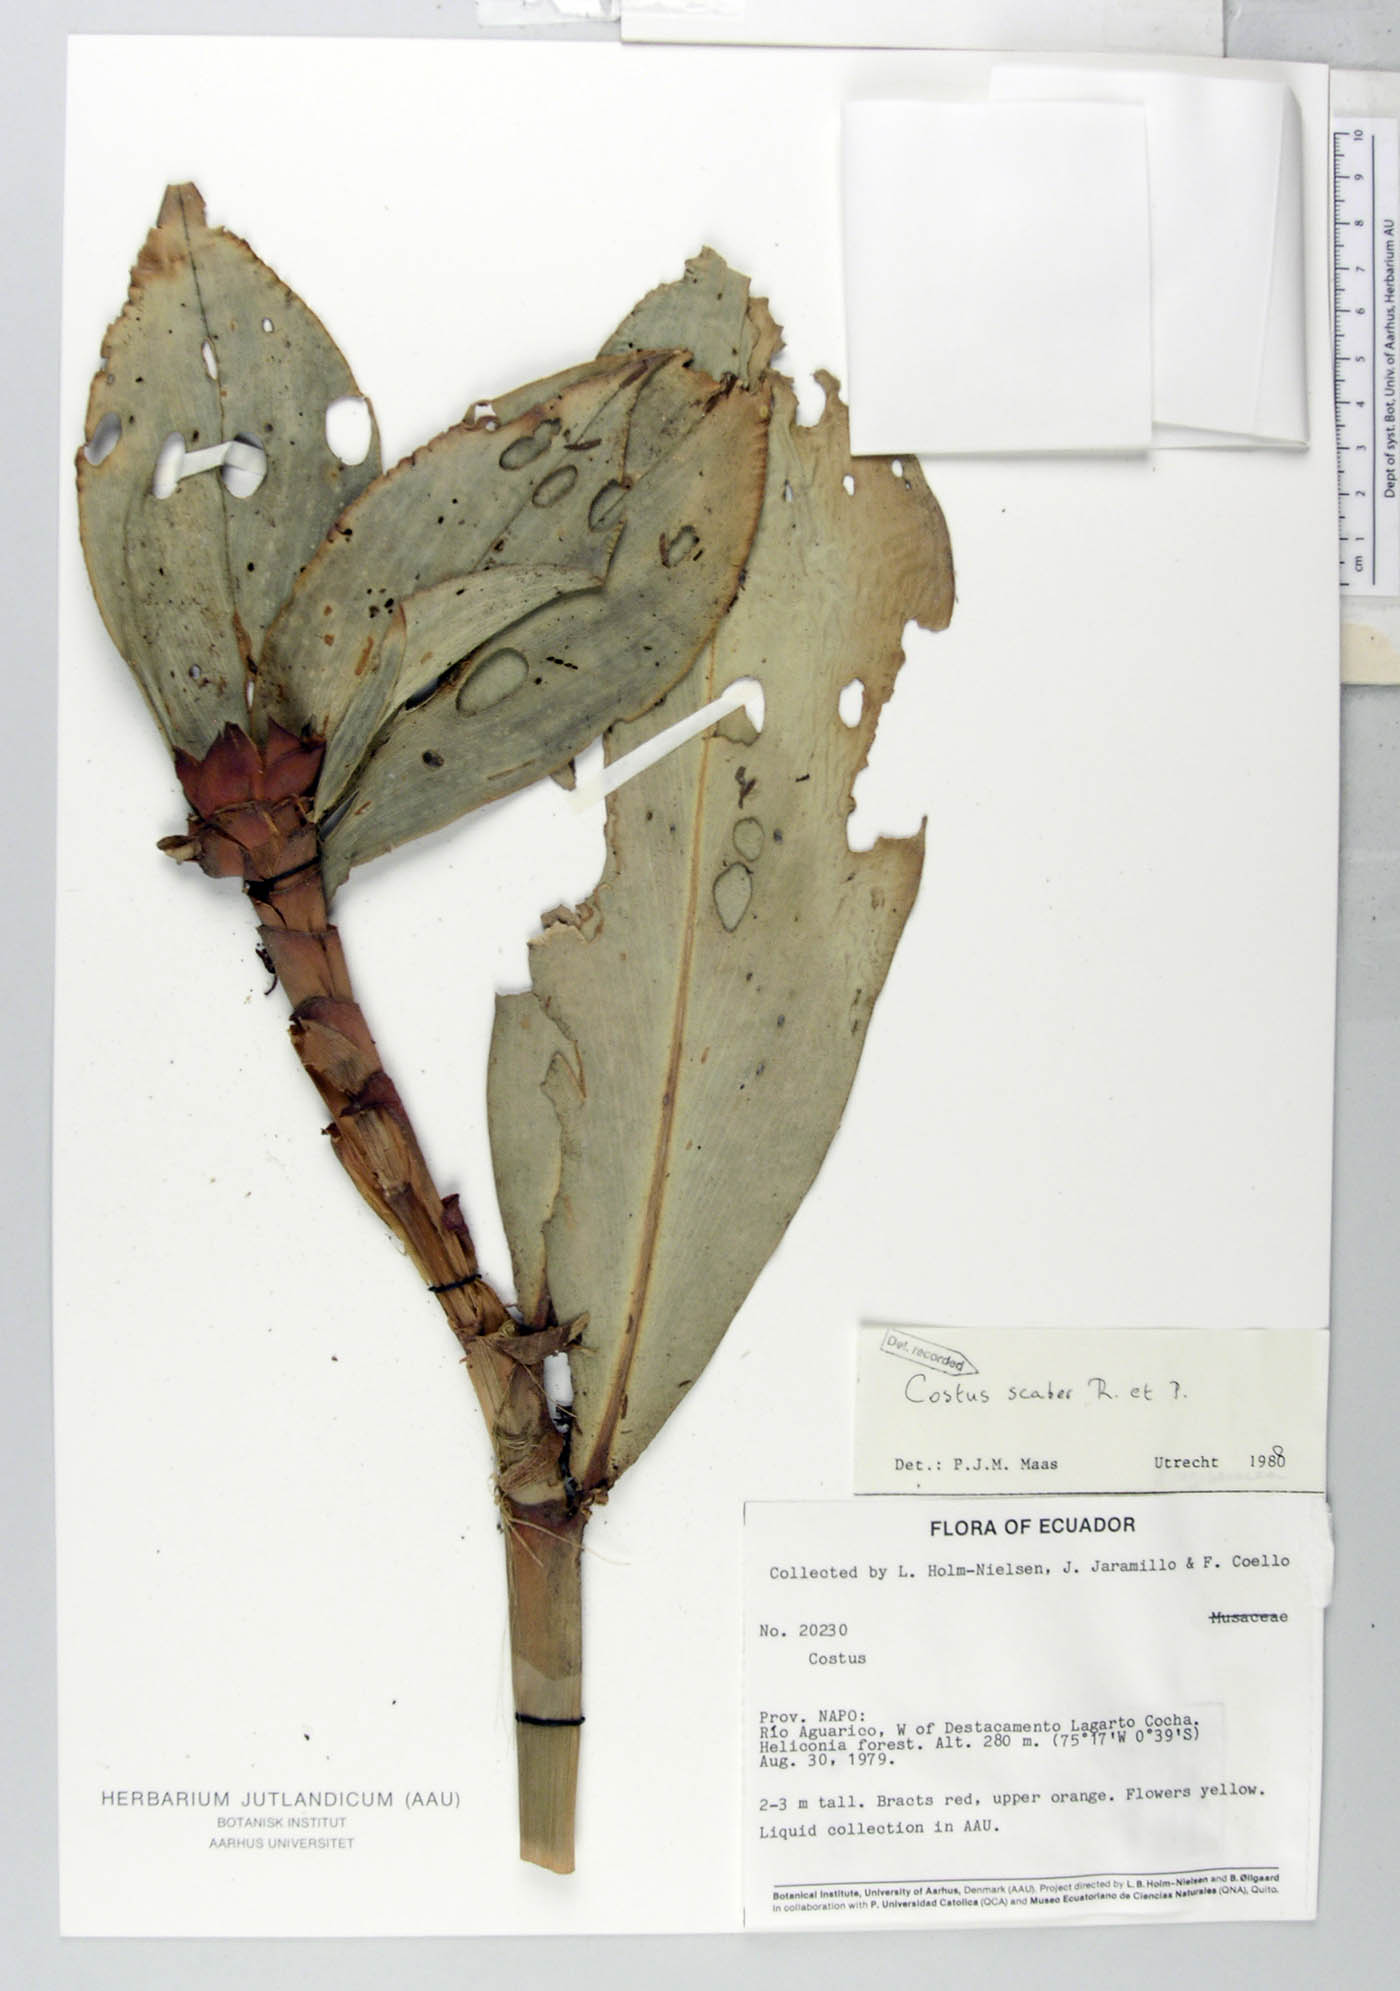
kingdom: Plantae
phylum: Tracheophyta
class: Liliopsida
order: Zingiberales
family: Costaceae
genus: Costus
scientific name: Costus scaber
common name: Spiral head ginger
